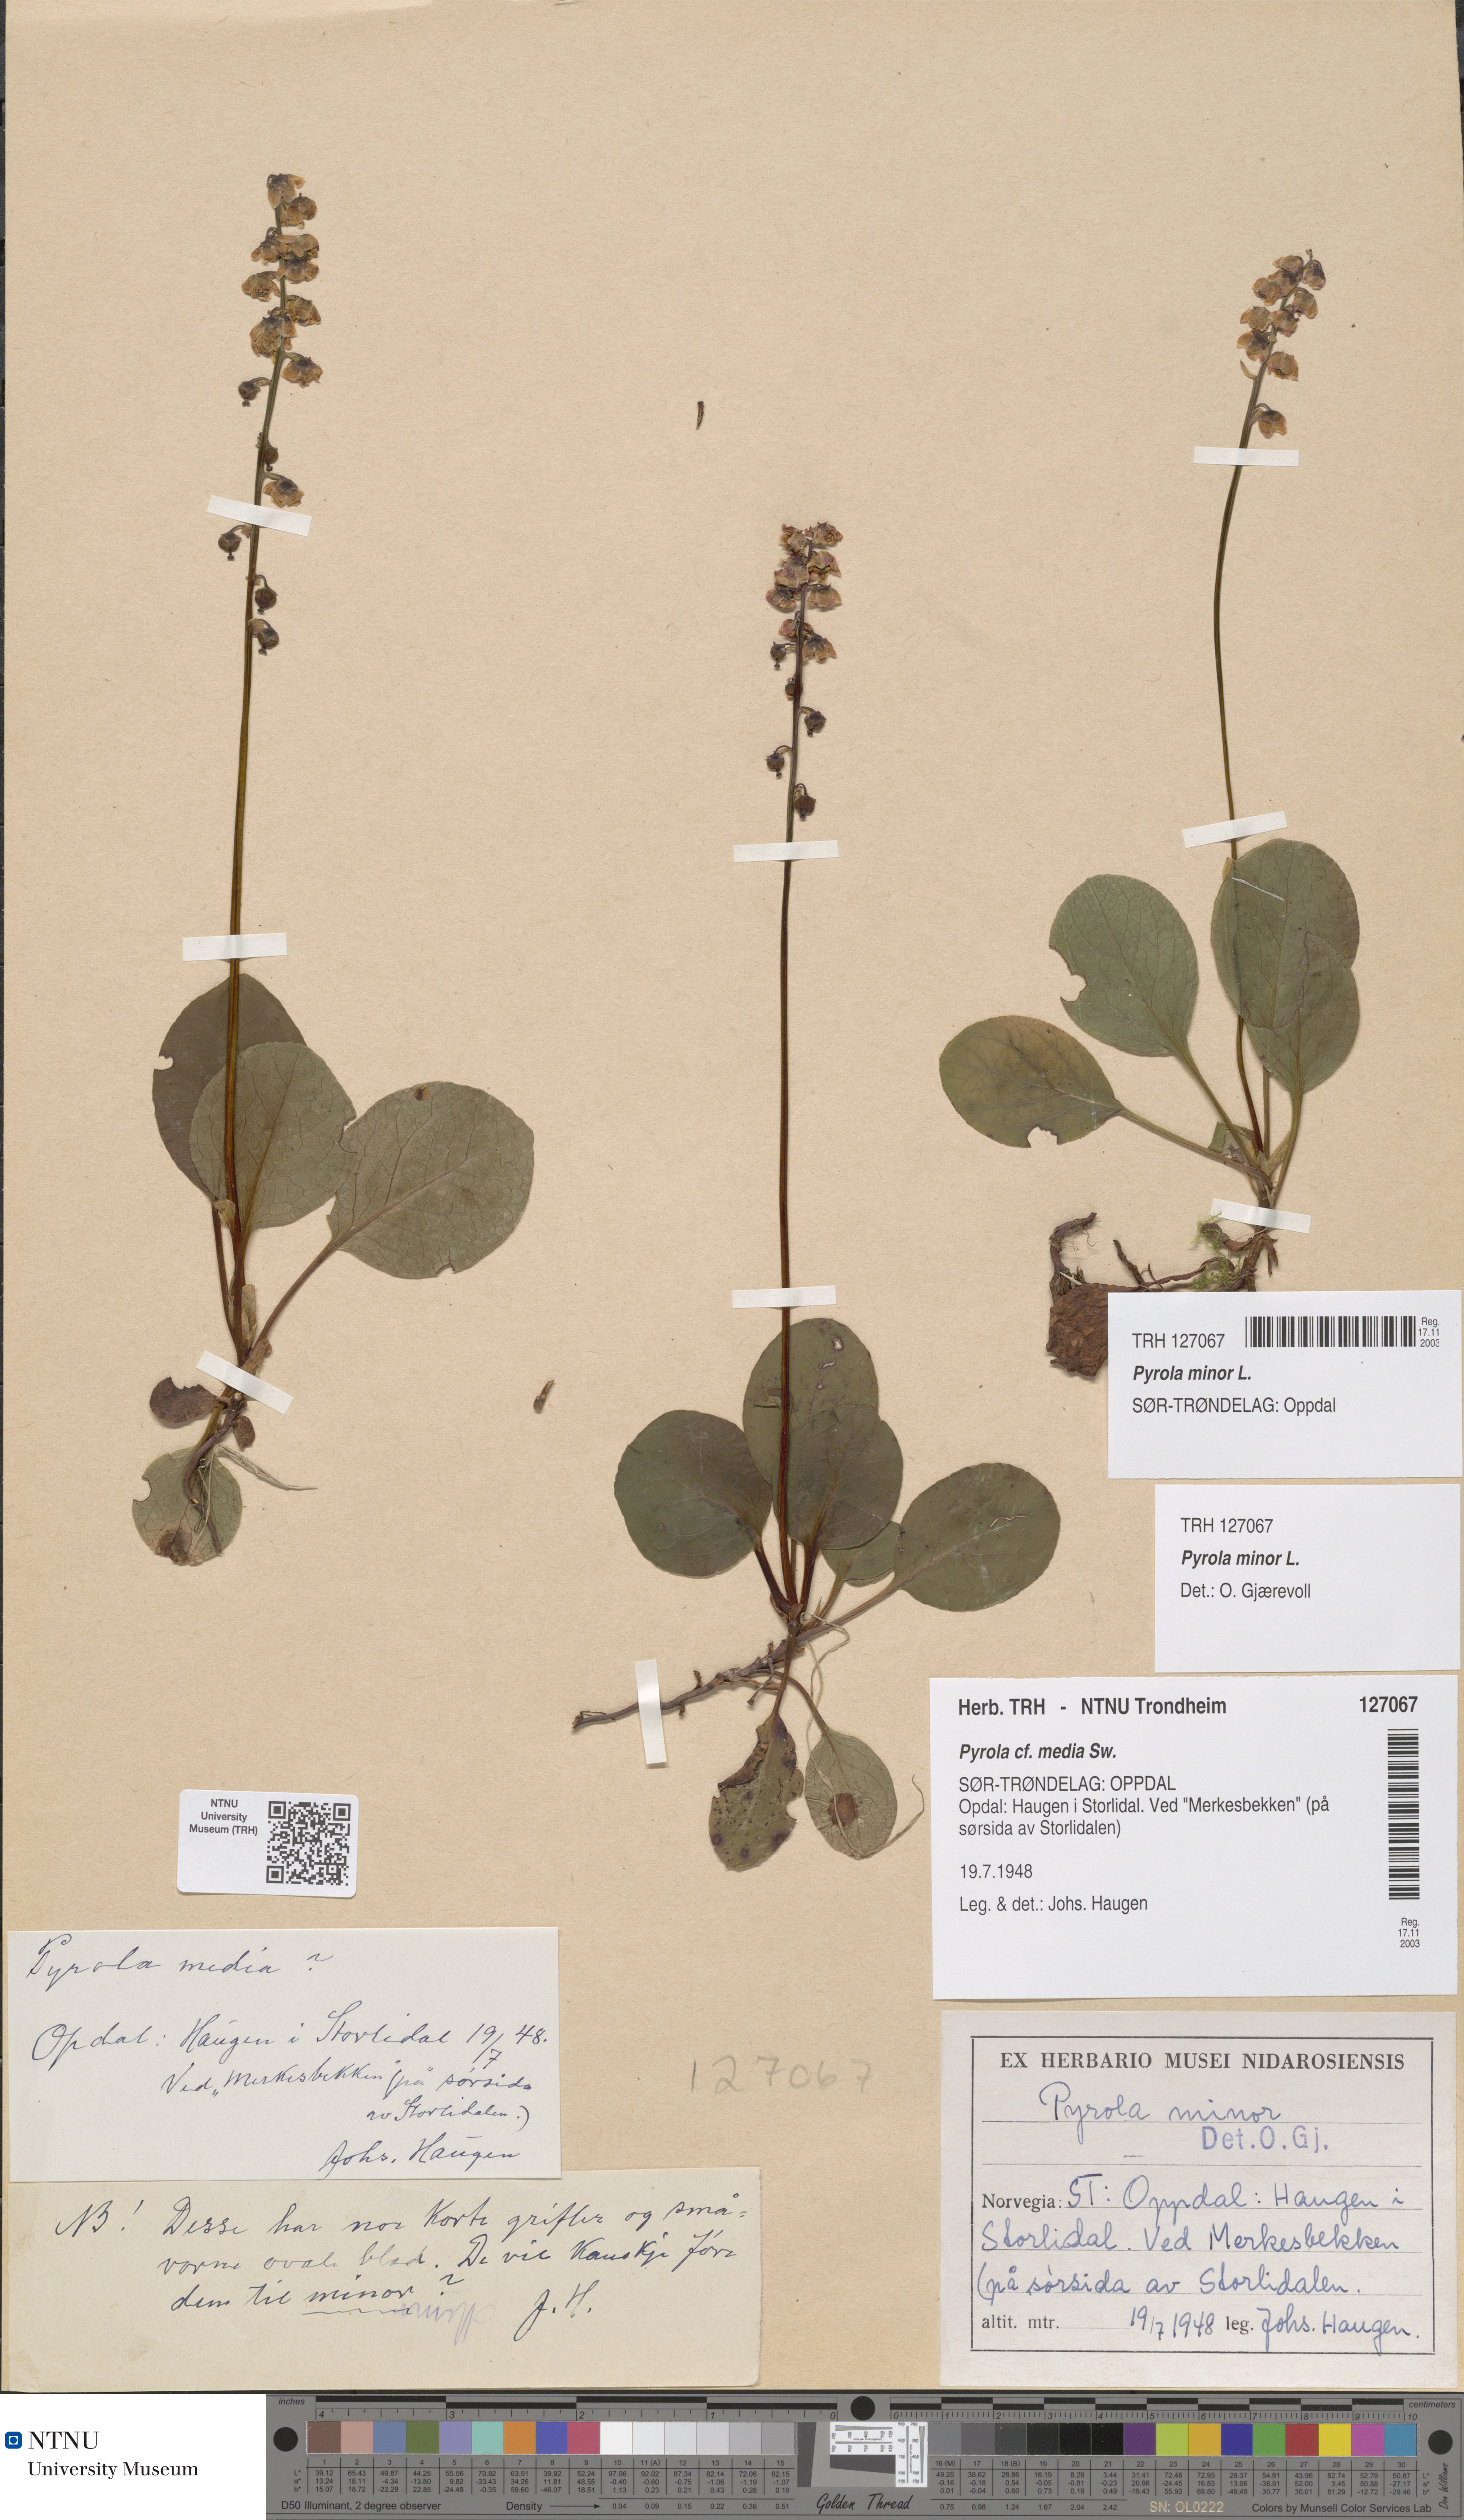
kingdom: Plantae
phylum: Tracheophyta
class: Magnoliopsida
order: Ericales
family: Ericaceae
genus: Pyrola
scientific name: Pyrola minor
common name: Common wintergreen
